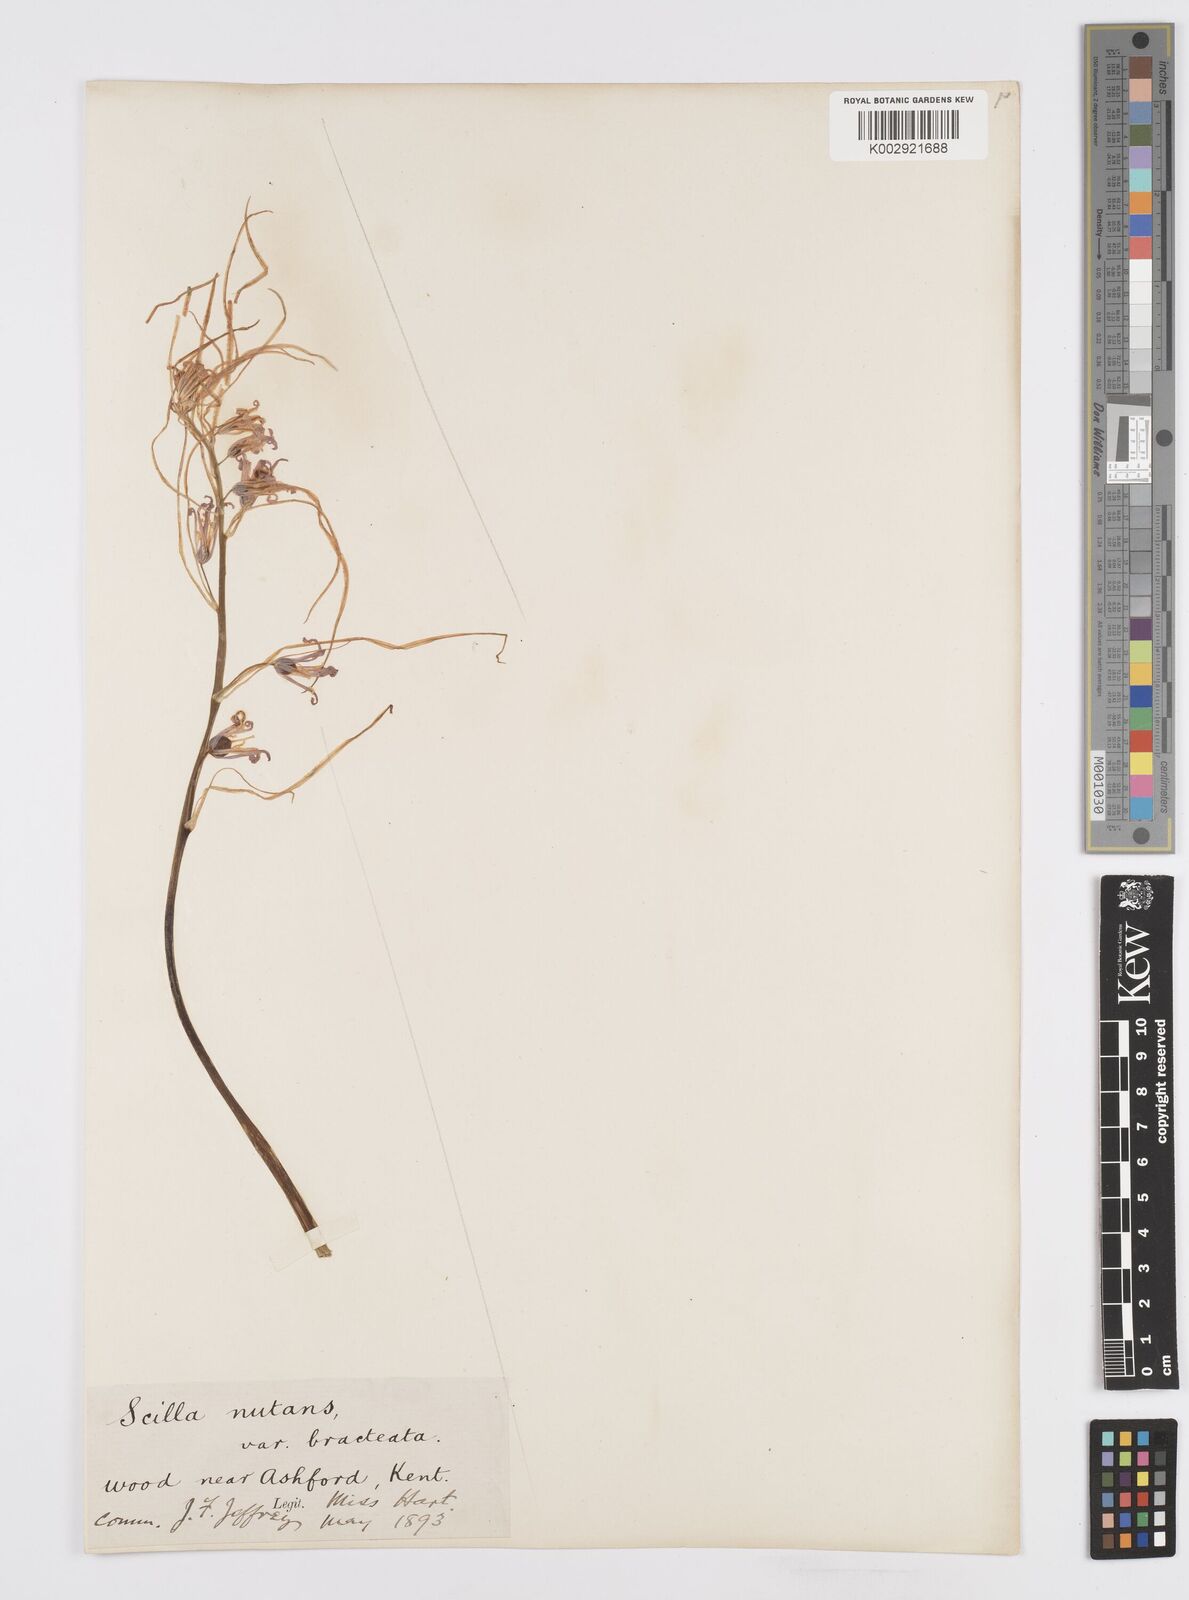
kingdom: Plantae
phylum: Tracheophyta
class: Liliopsida
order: Asparagales
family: Asparagaceae
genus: Hyacinthoides
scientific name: Hyacinthoides
